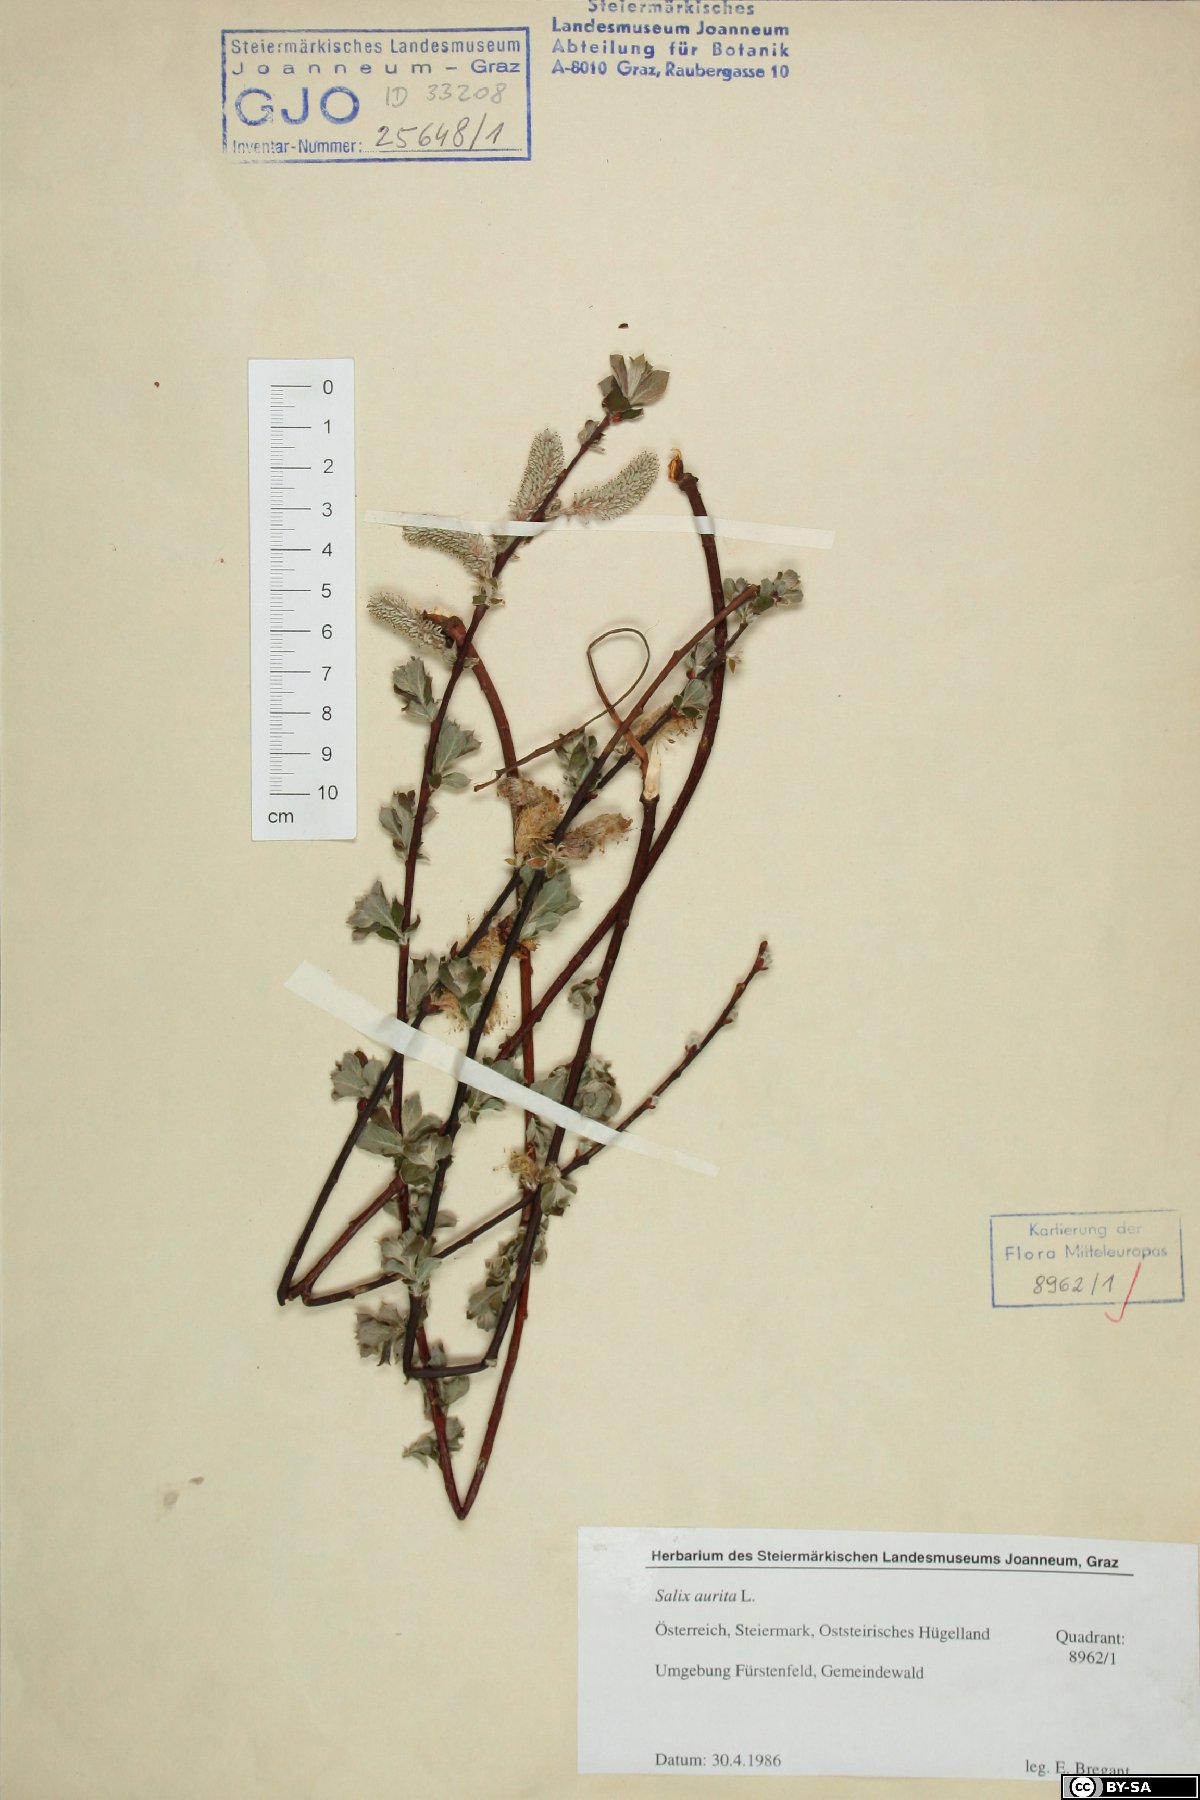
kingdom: Plantae
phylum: Tracheophyta
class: Magnoliopsida
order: Malpighiales
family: Salicaceae
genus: Salix
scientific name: Salix aurita
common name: Eared willow
